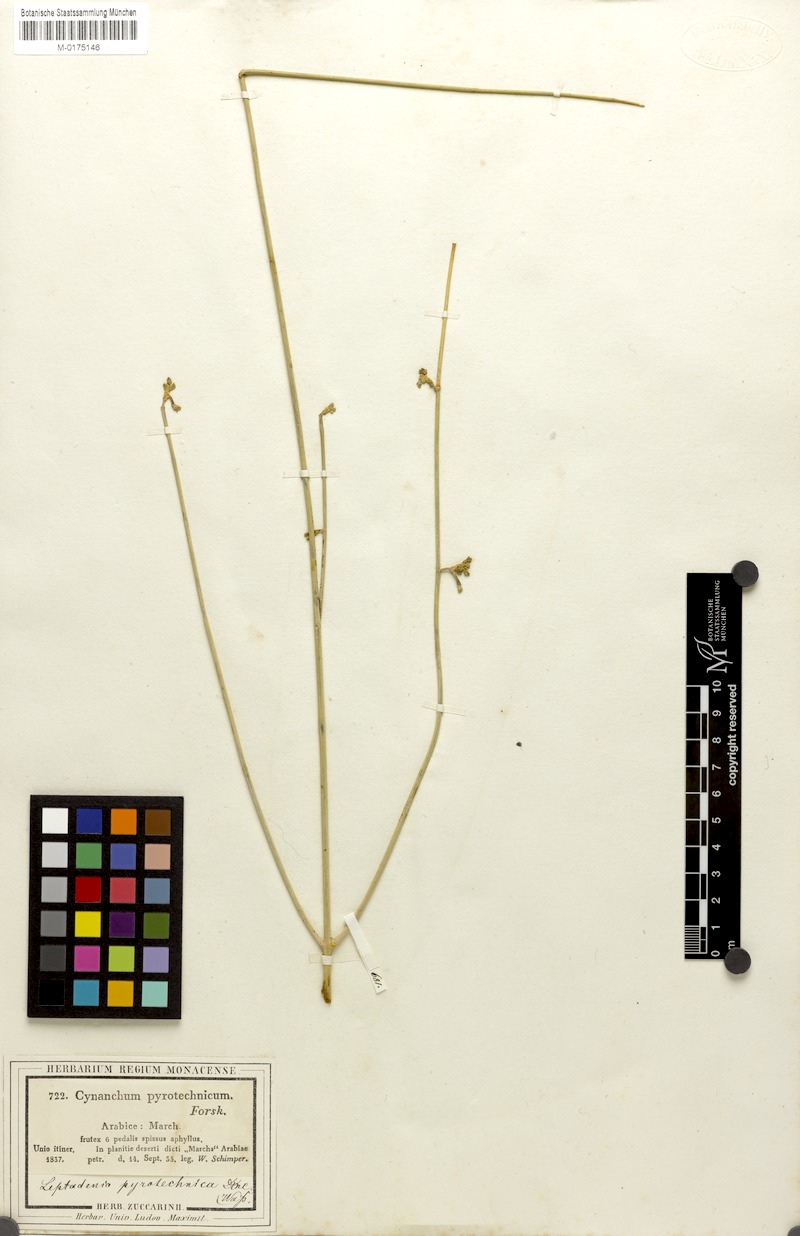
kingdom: Plantae
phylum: Tracheophyta
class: Magnoliopsida
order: Gentianales
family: Apocynaceae
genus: Leptadenia
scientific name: Leptadenia pyrotechnica
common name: Broom brush
